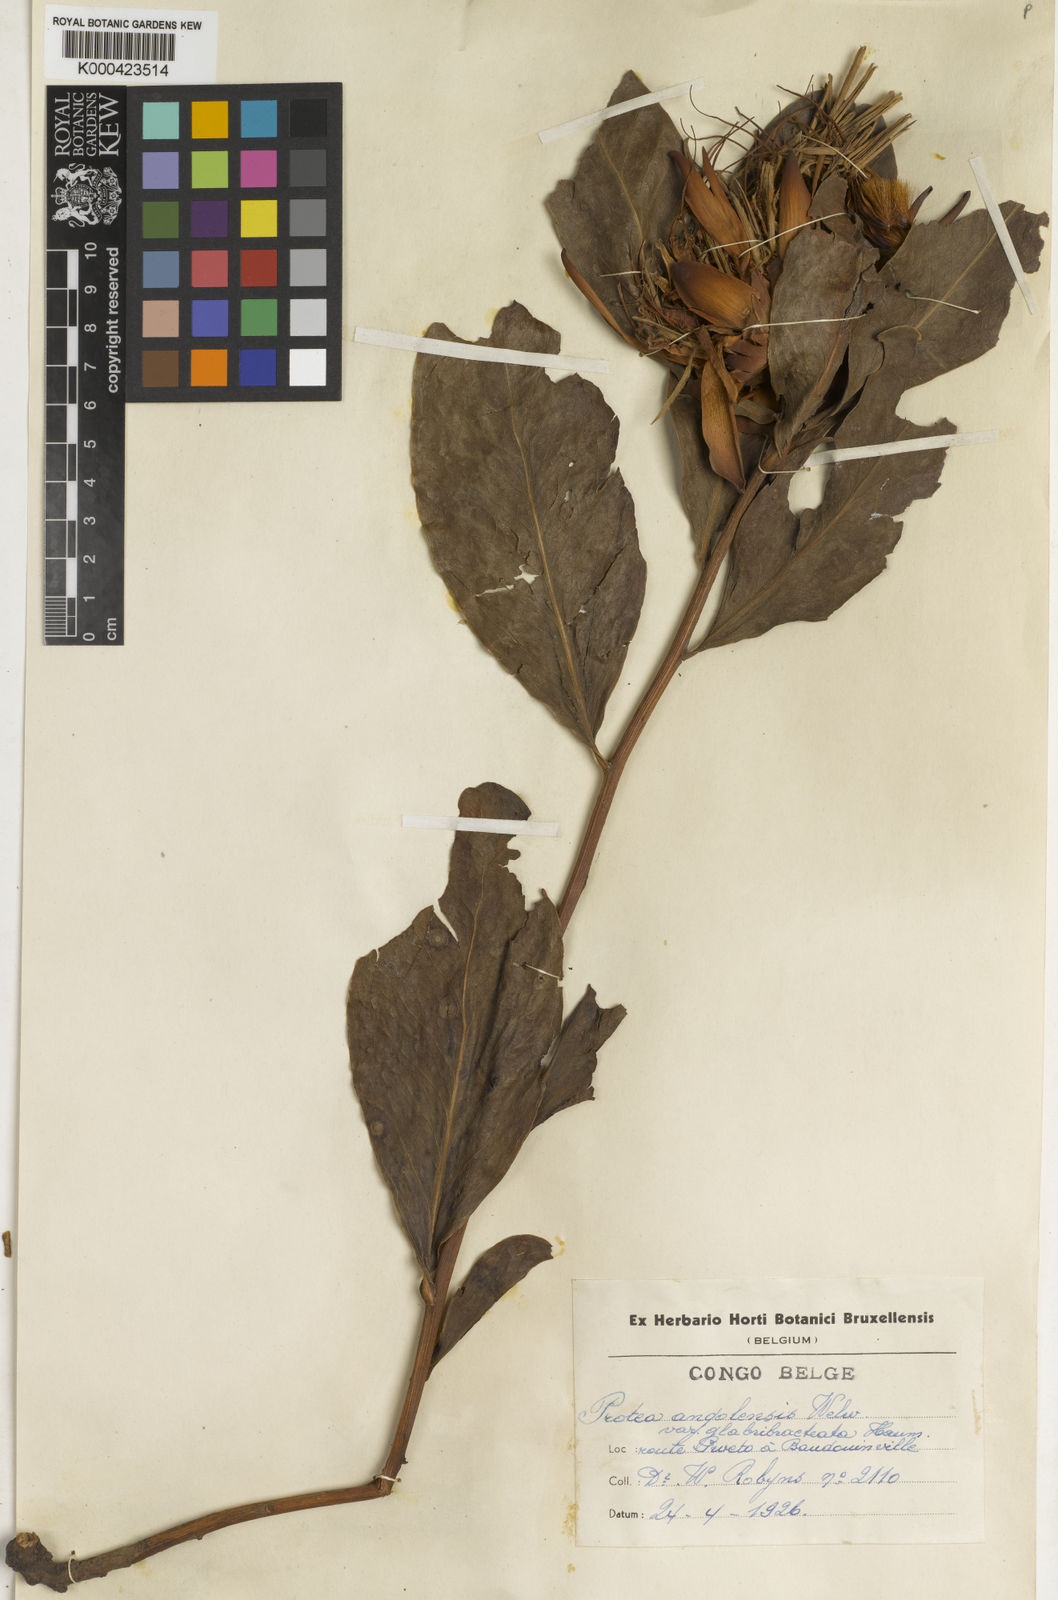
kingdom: Plantae
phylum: Tracheophyta
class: Magnoliopsida
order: Proteales
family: Proteaceae
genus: Protea
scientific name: Protea angolensis
